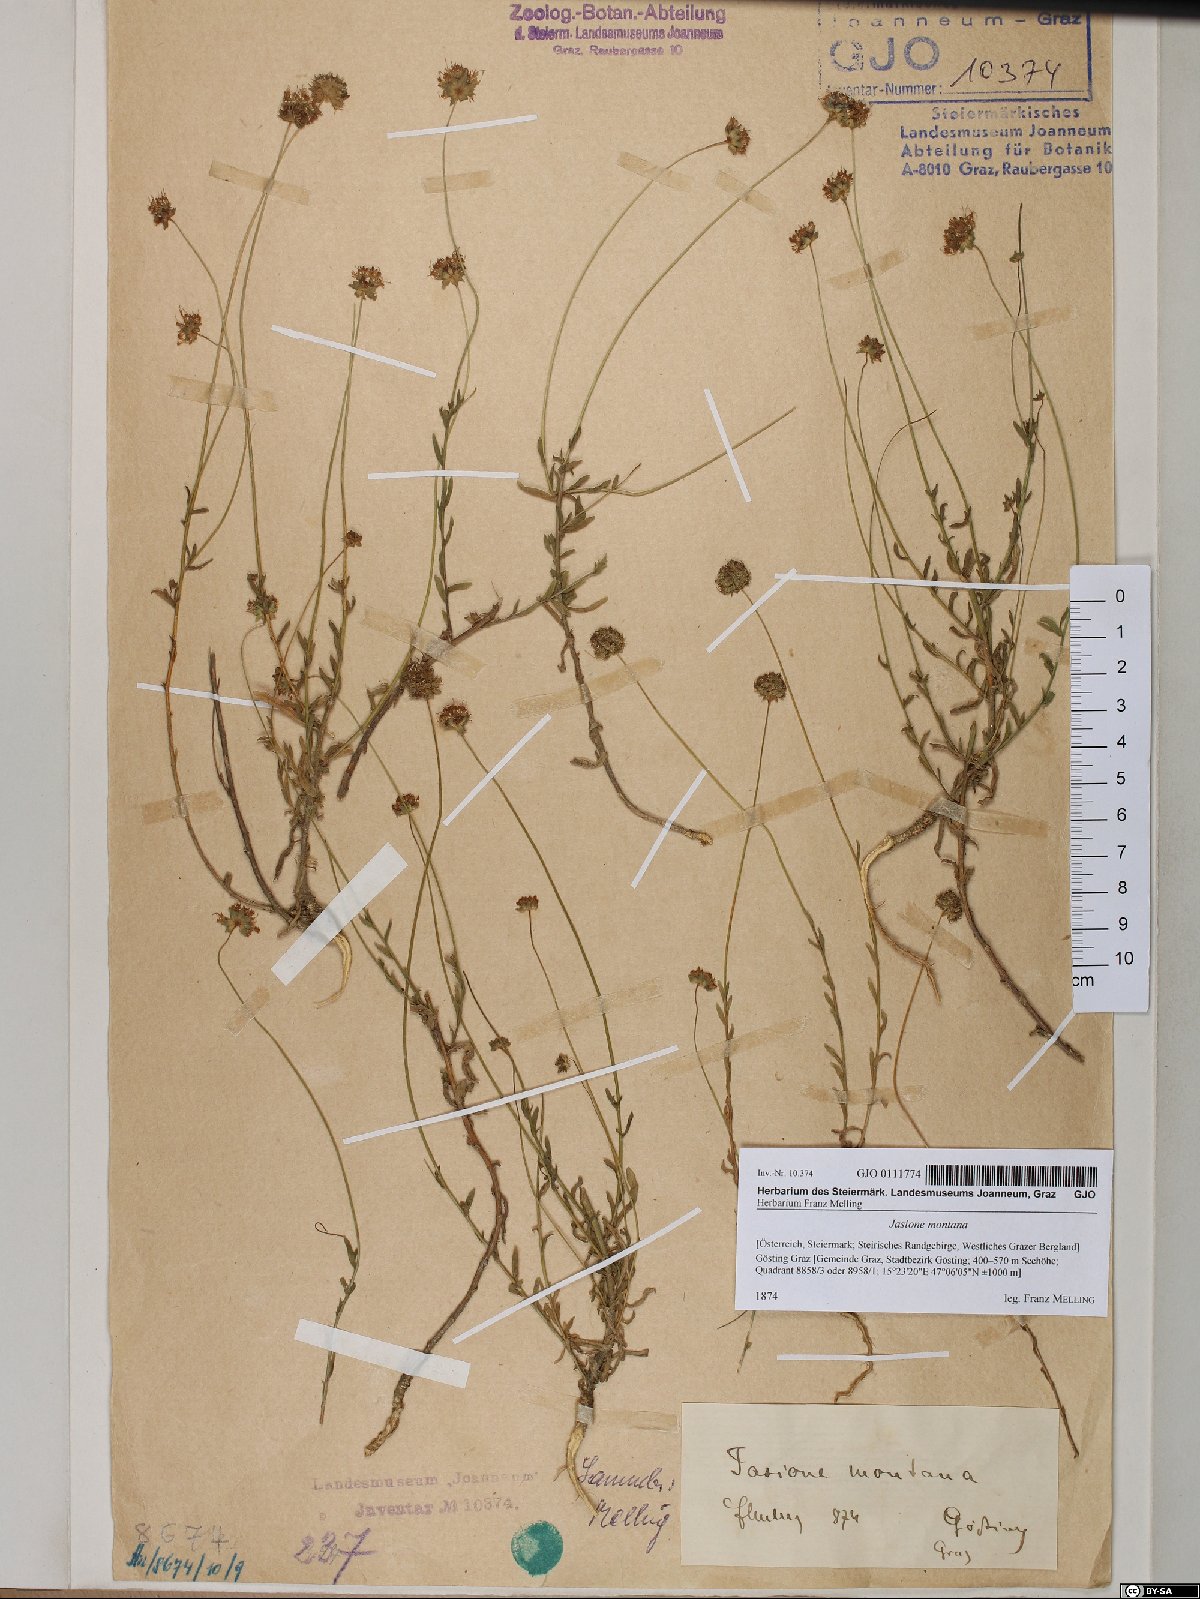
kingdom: Plantae
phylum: Tracheophyta
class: Magnoliopsida
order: Asterales
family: Campanulaceae
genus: Jasione
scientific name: Jasione montana
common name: Sheep's-bit
